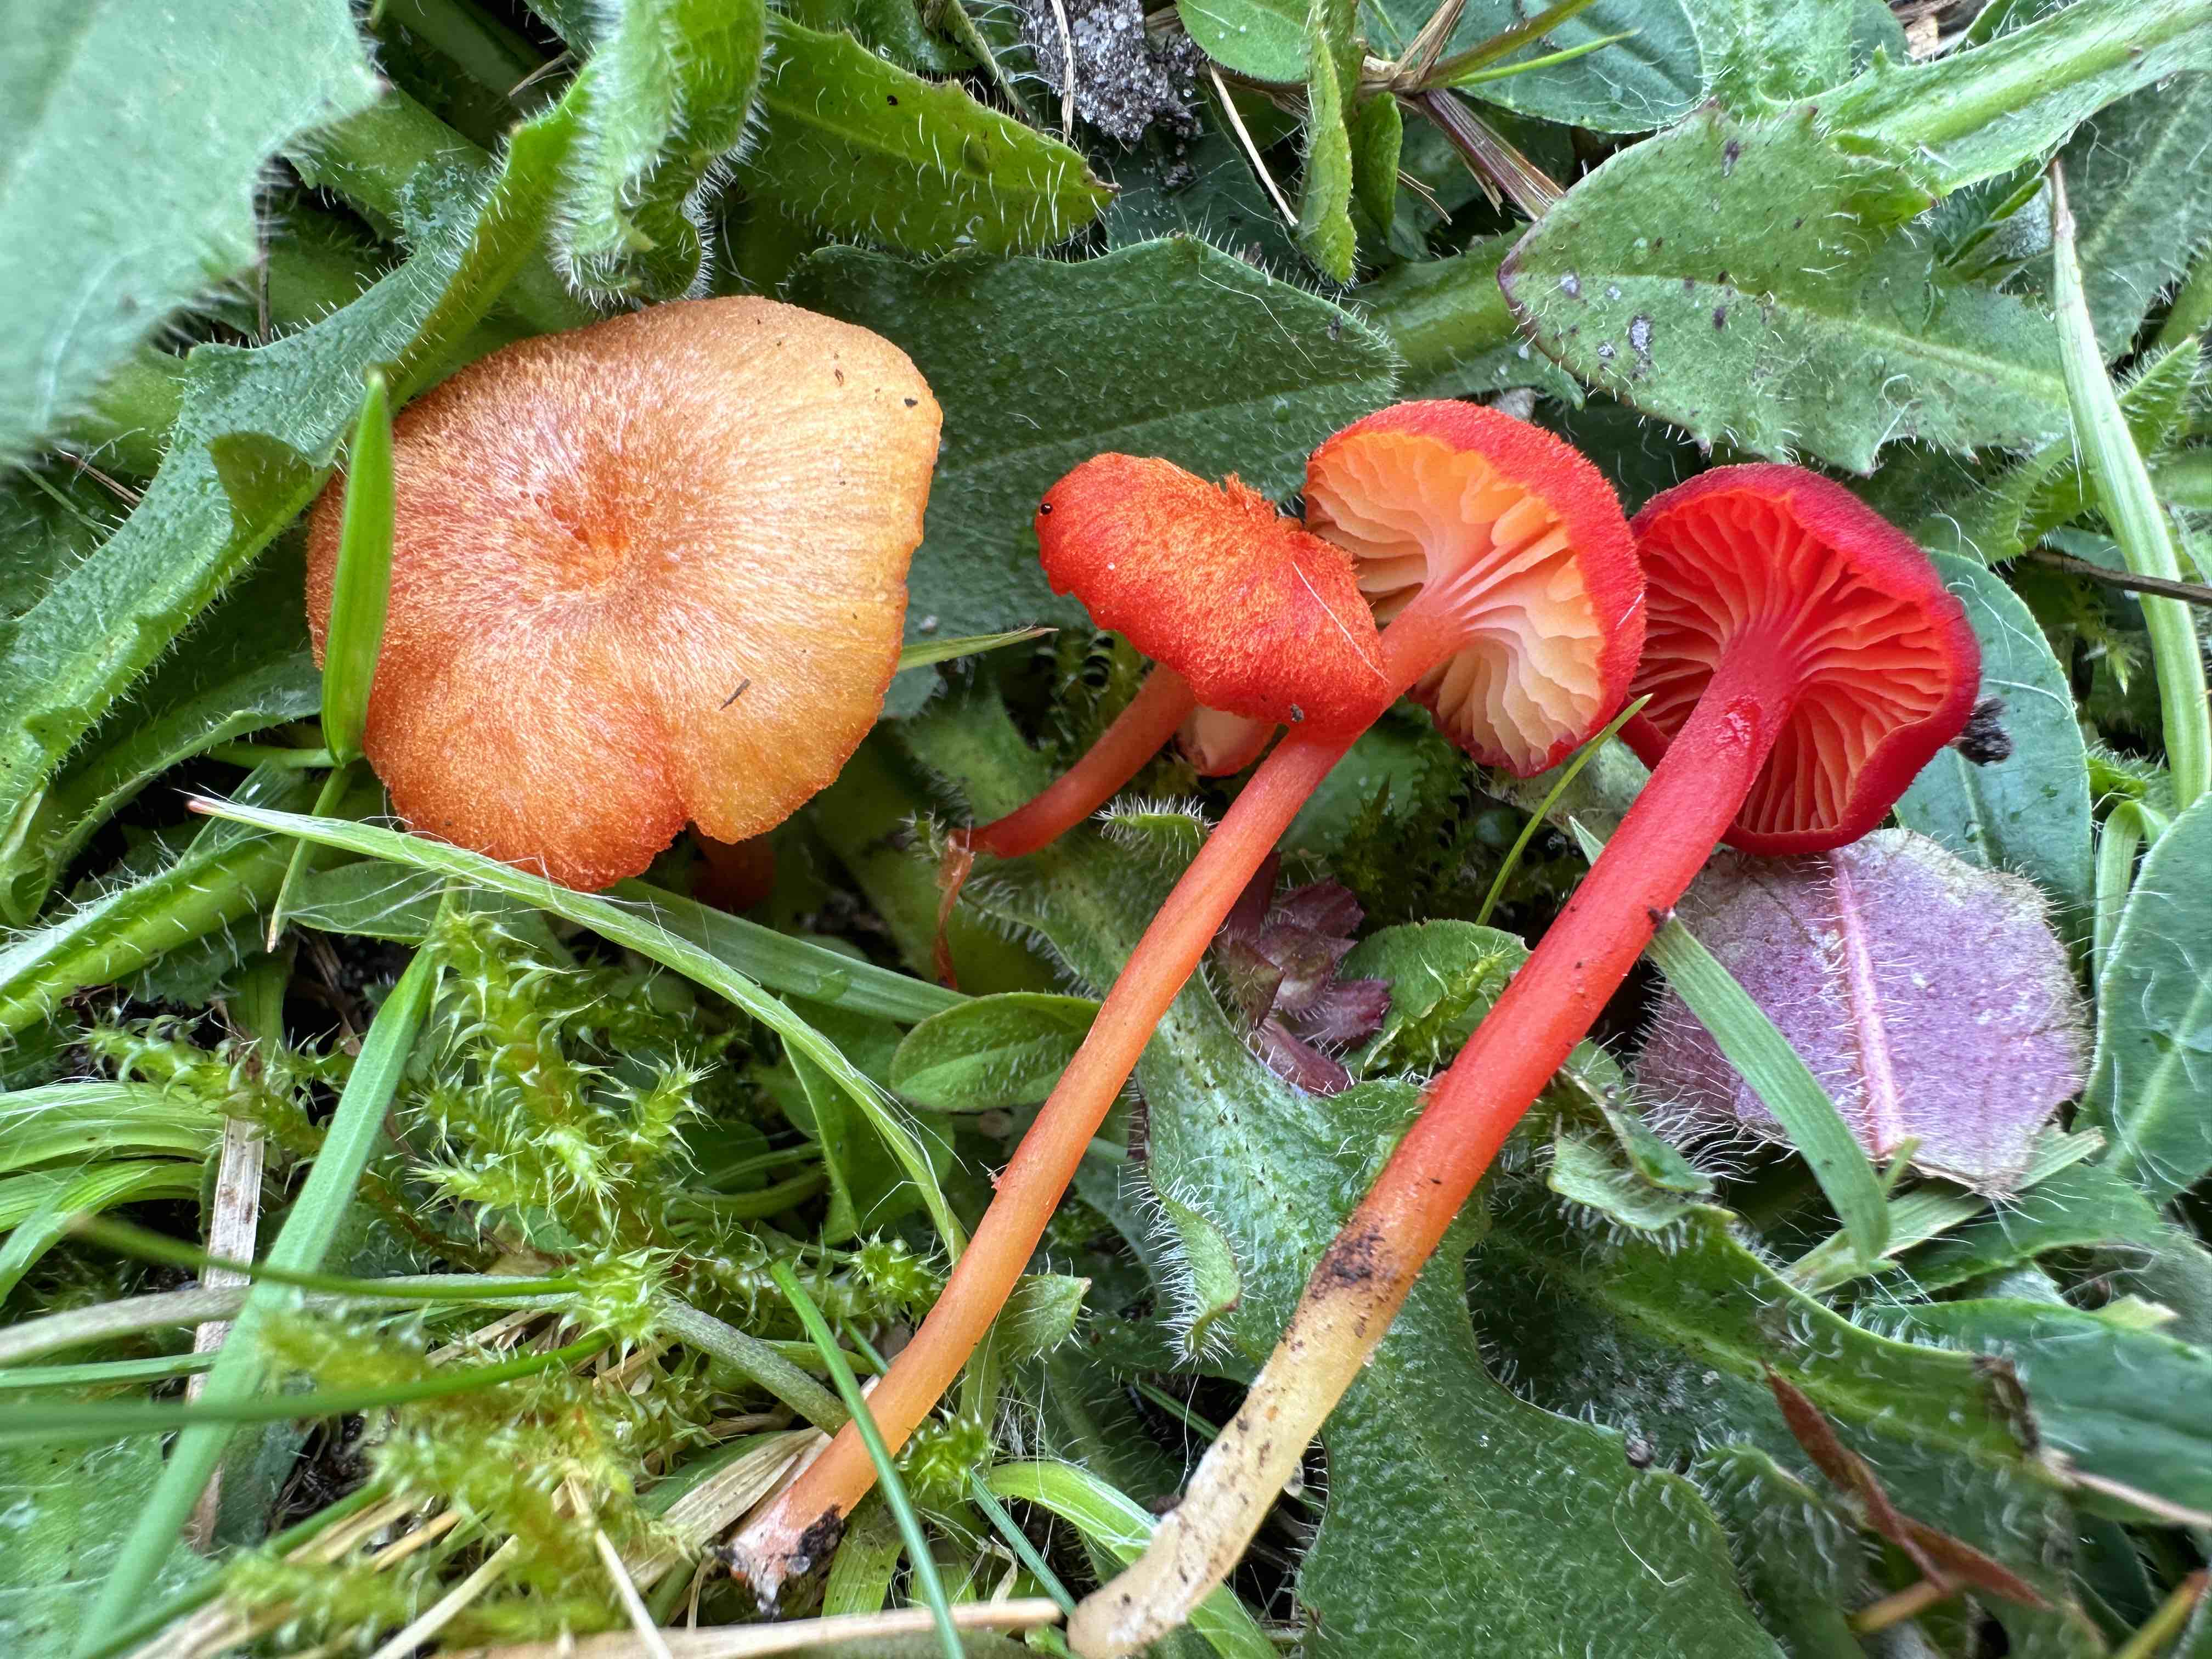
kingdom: Fungi
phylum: Basidiomycota
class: Agaricomycetes
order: Agaricales
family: Hygrophoraceae
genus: Hygrocybe
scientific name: Hygrocybe helobia
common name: hvidløgs-vokshat
